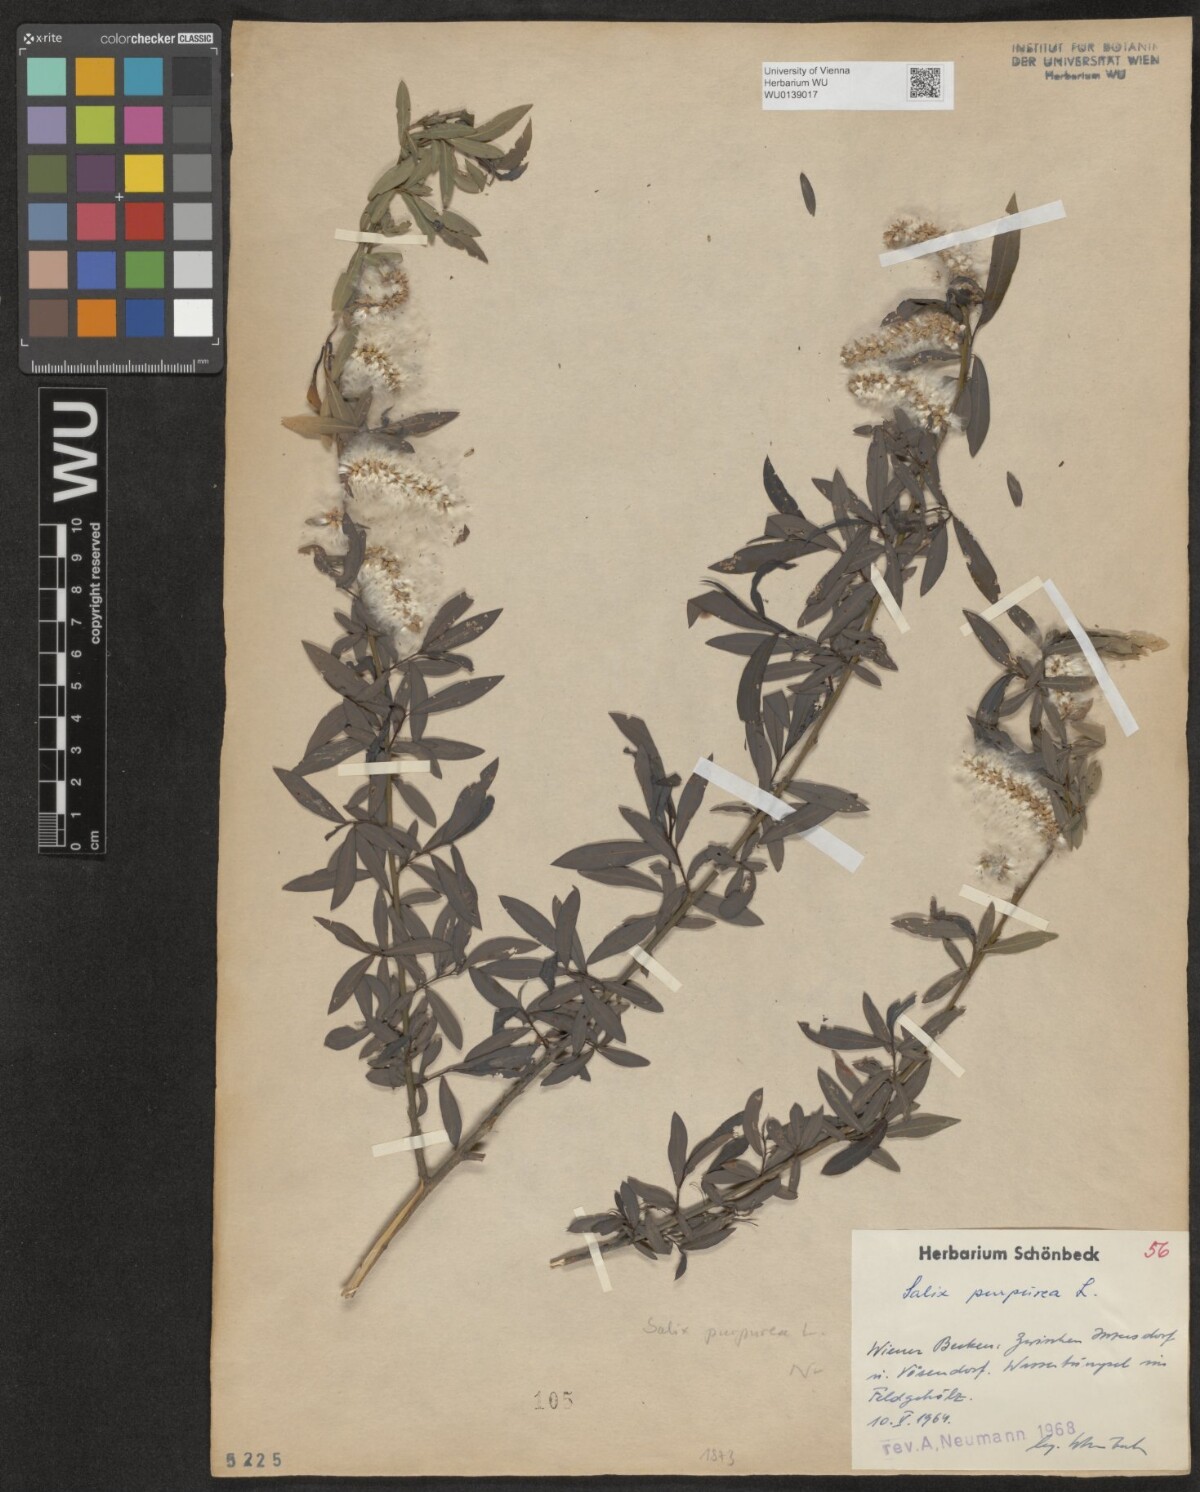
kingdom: Plantae
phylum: Tracheophyta
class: Magnoliopsida
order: Malpighiales
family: Salicaceae
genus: Salix
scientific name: Salix purpurea
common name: Purple willow
